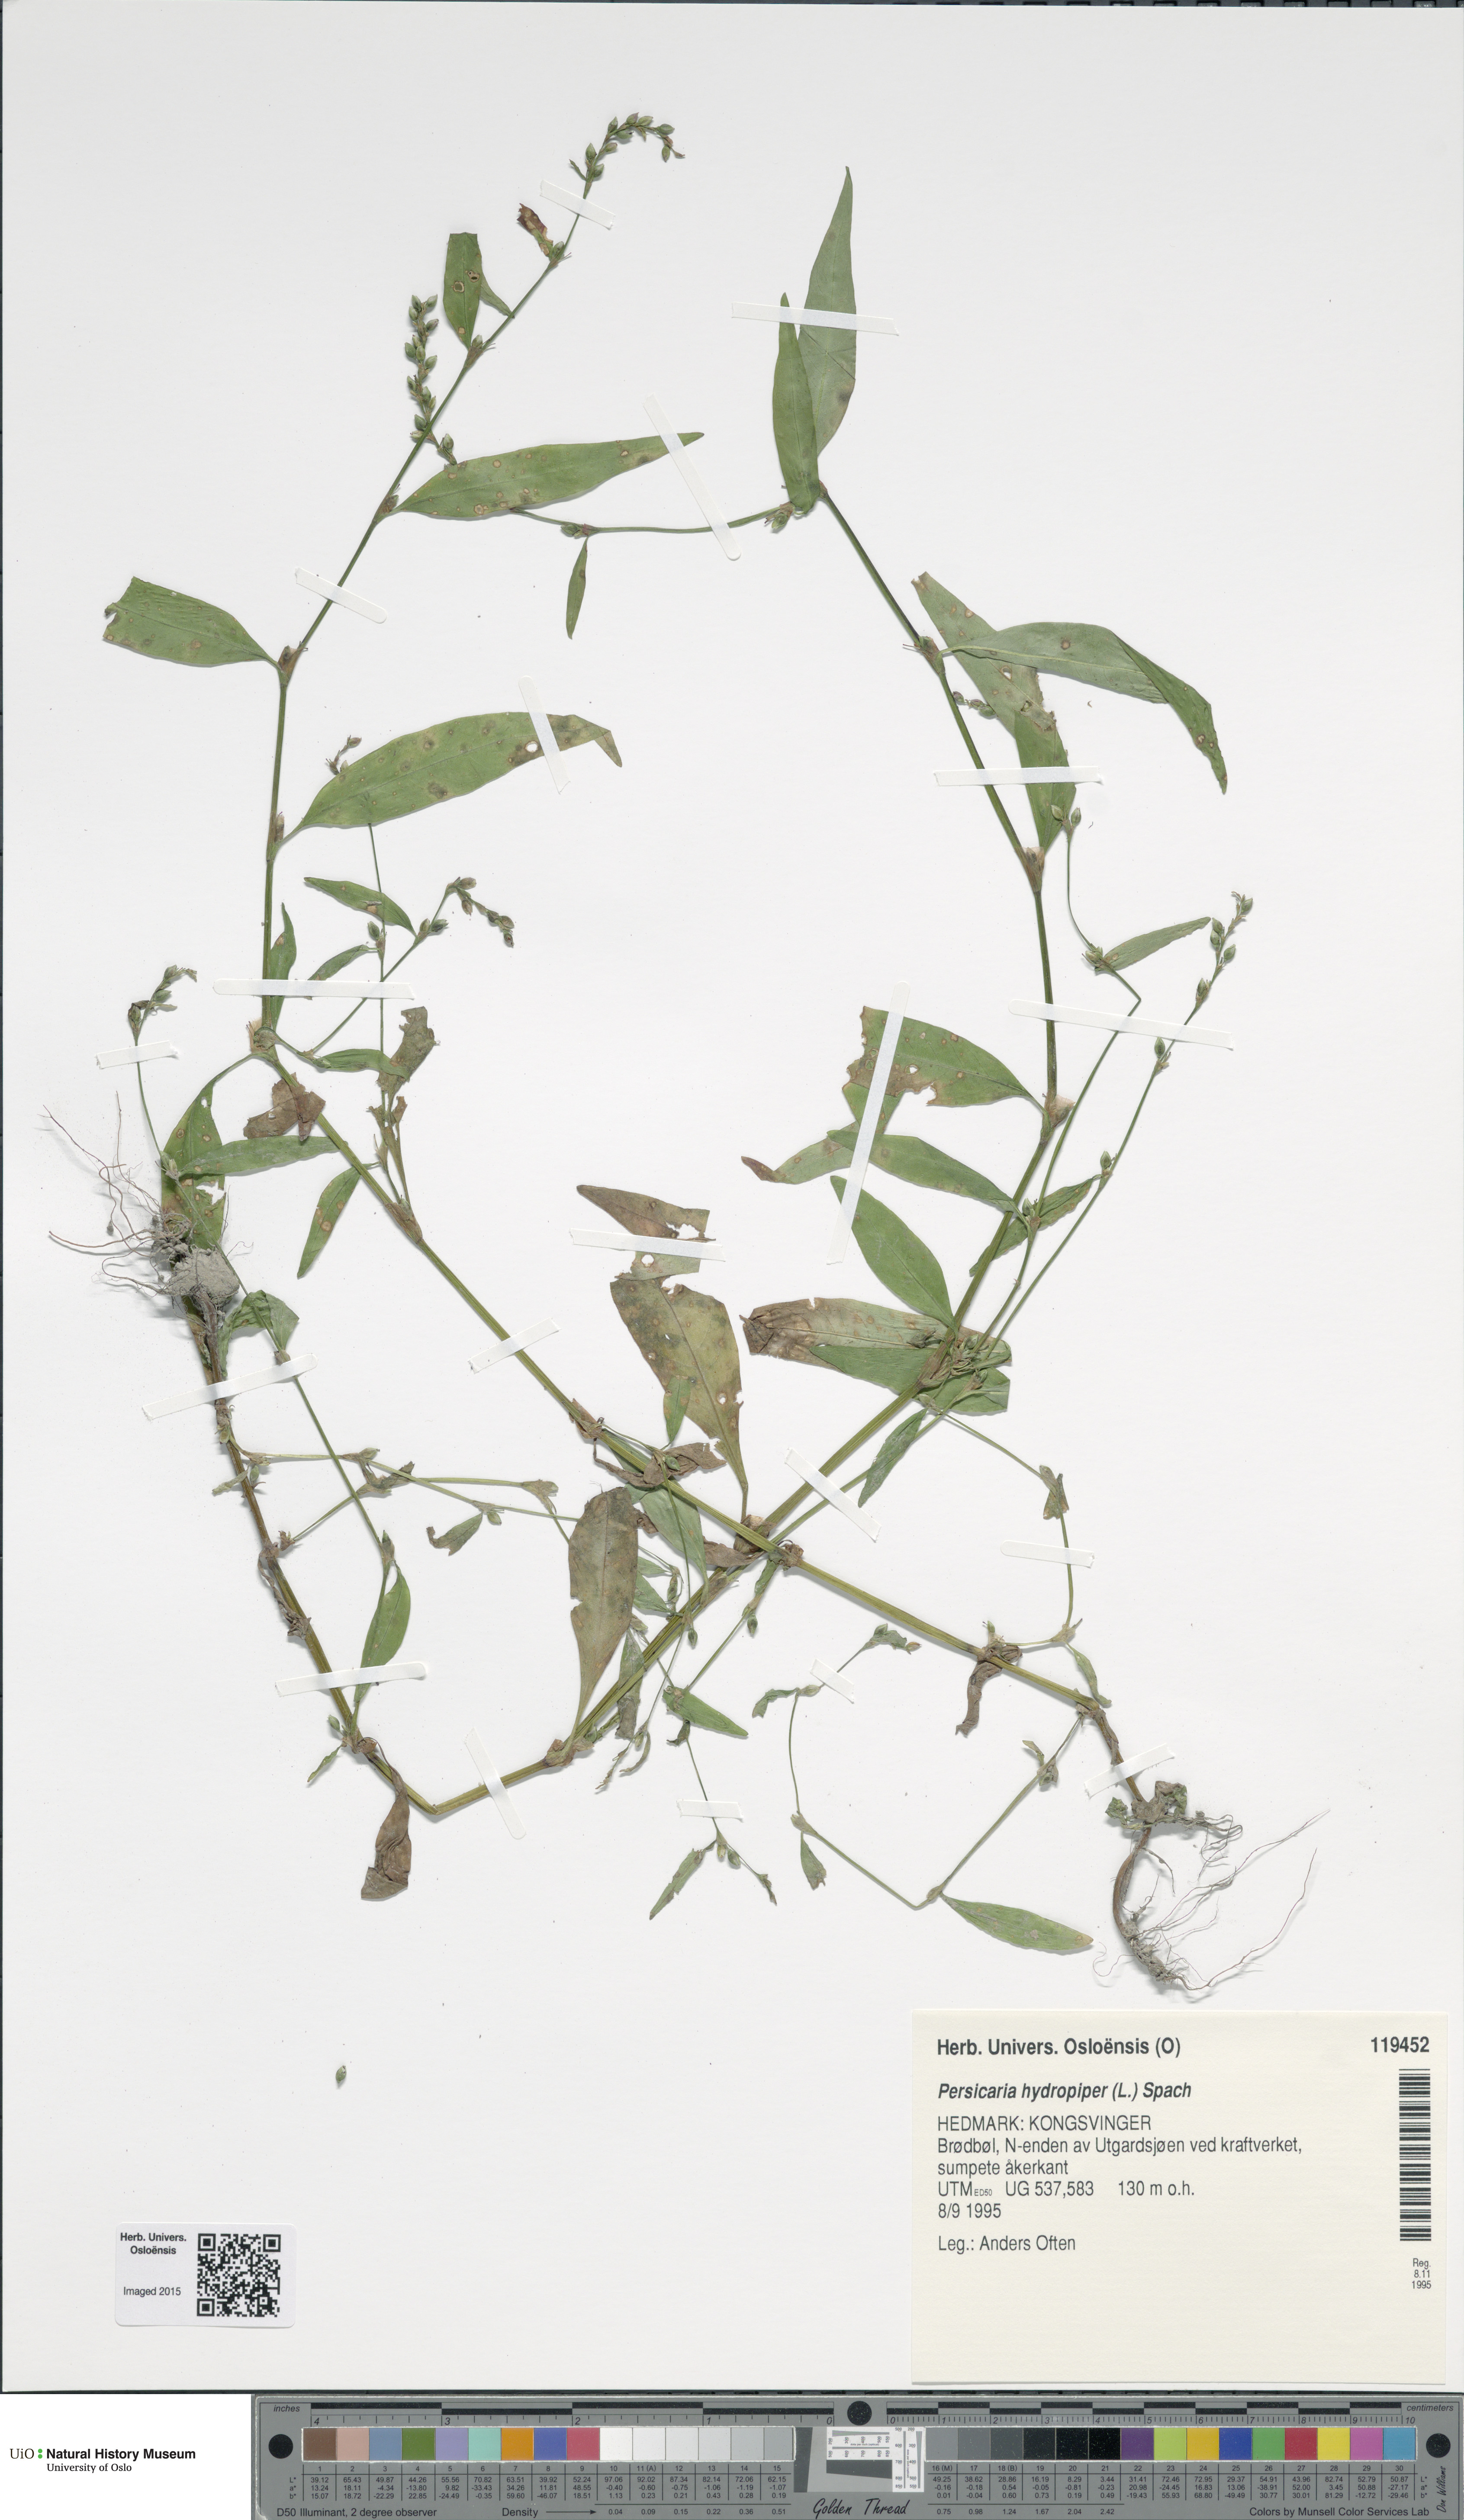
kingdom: Plantae
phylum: Tracheophyta
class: Magnoliopsida
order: Caryophyllales
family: Polygonaceae
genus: Persicaria
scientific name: Persicaria hydropiper
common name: Water-pepper
